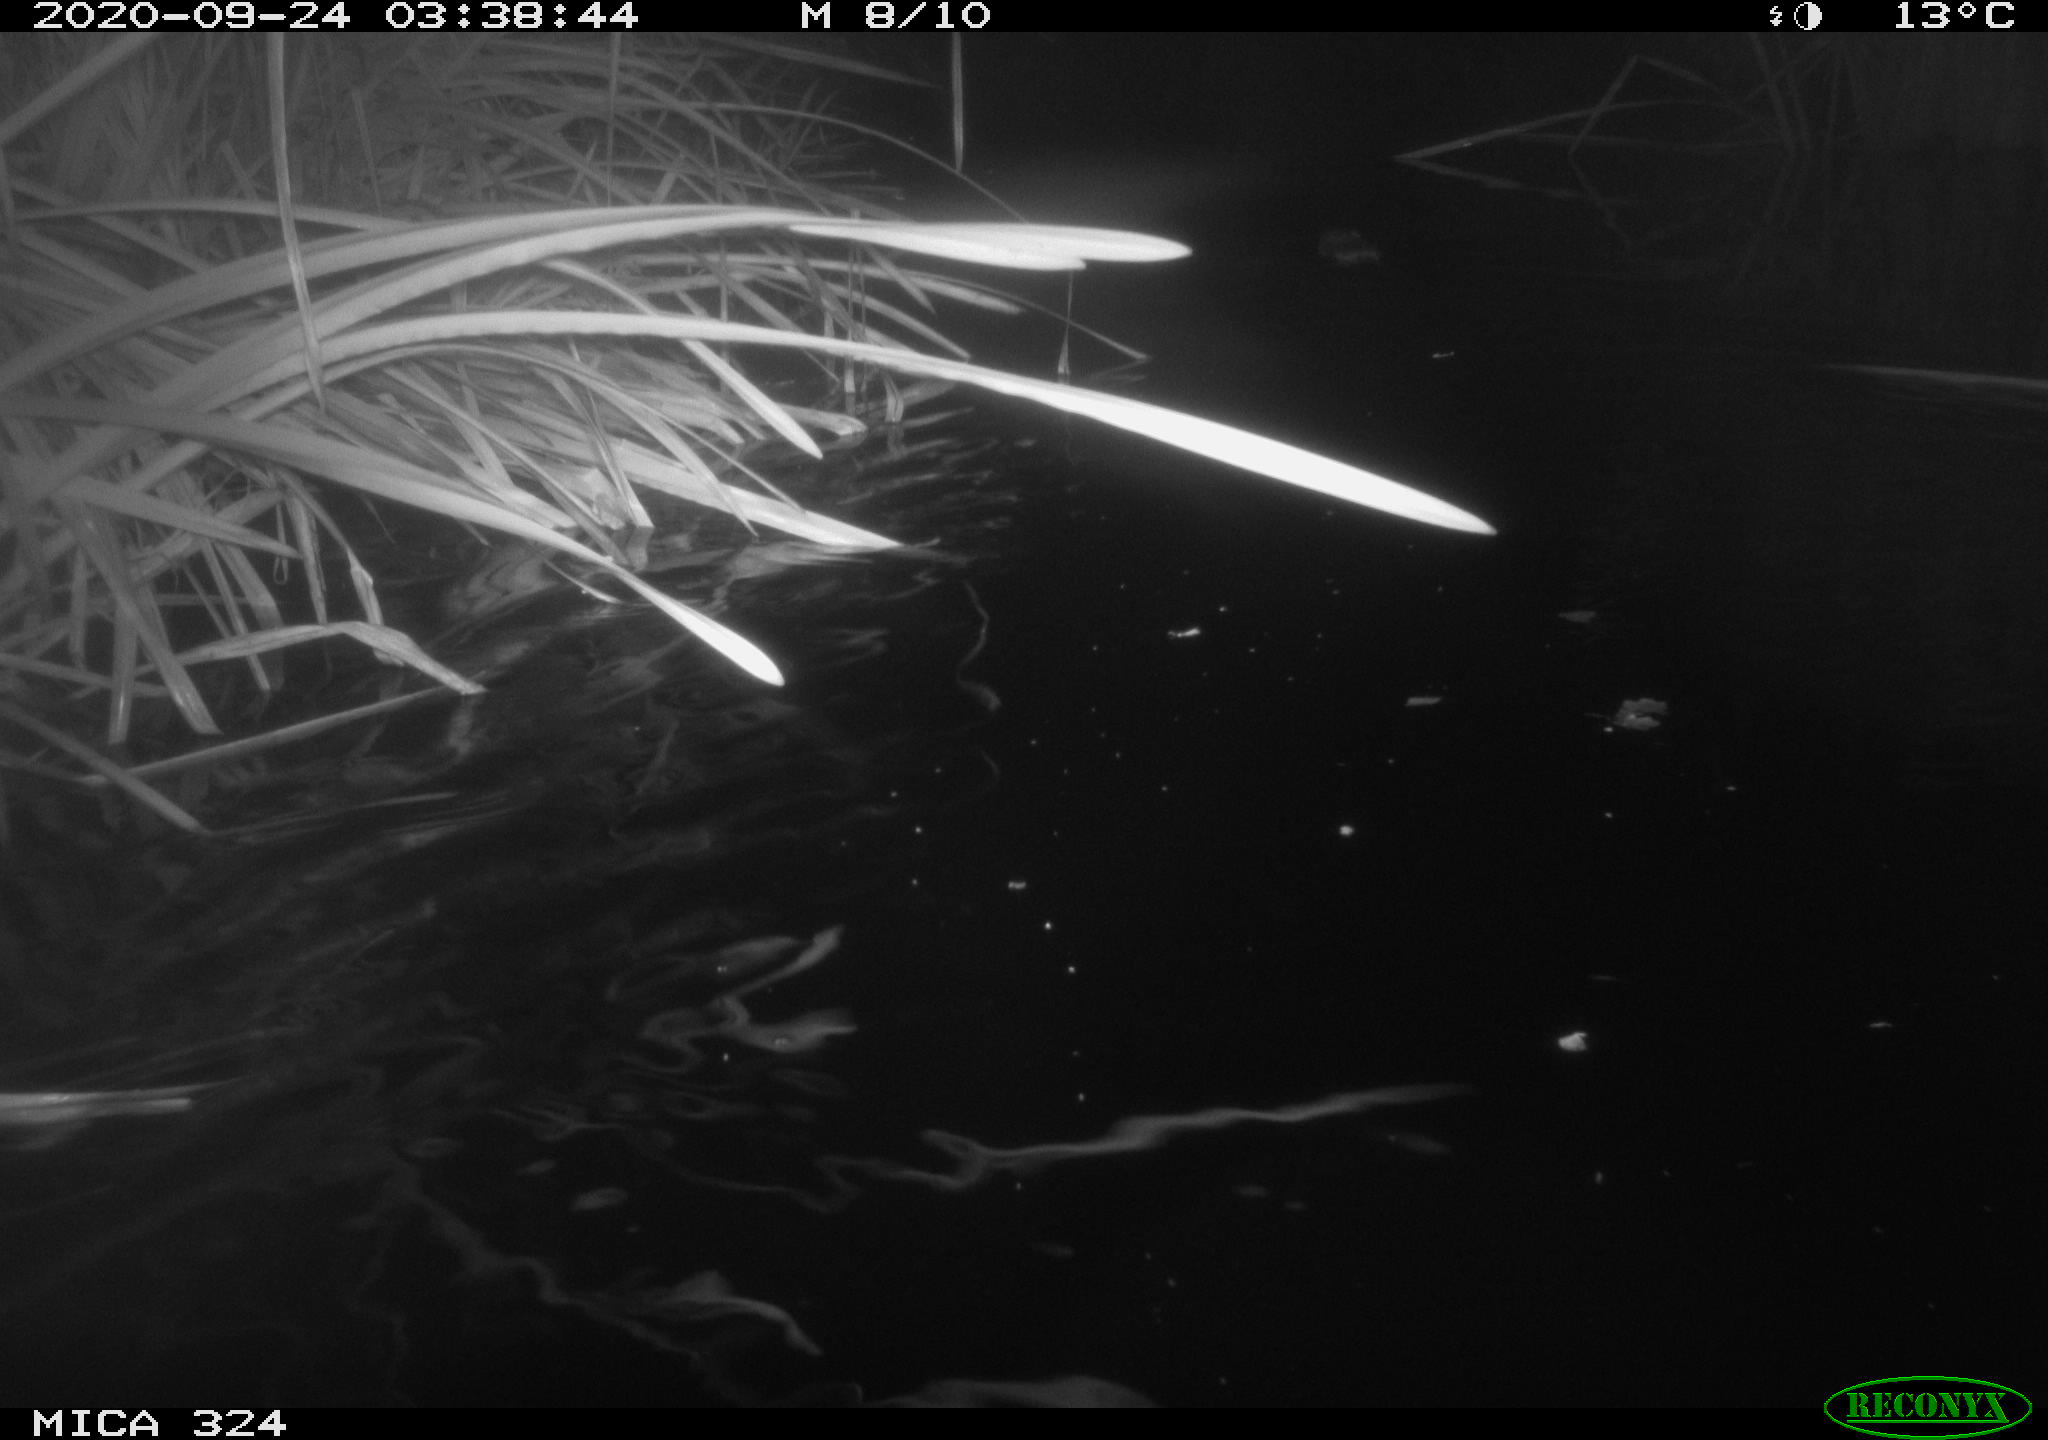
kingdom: Animalia
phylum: Chordata
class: Mammalia
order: Rodentia
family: Cricetidae
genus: Ondatra
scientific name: Ondatra zibethicus
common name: Muskrat
